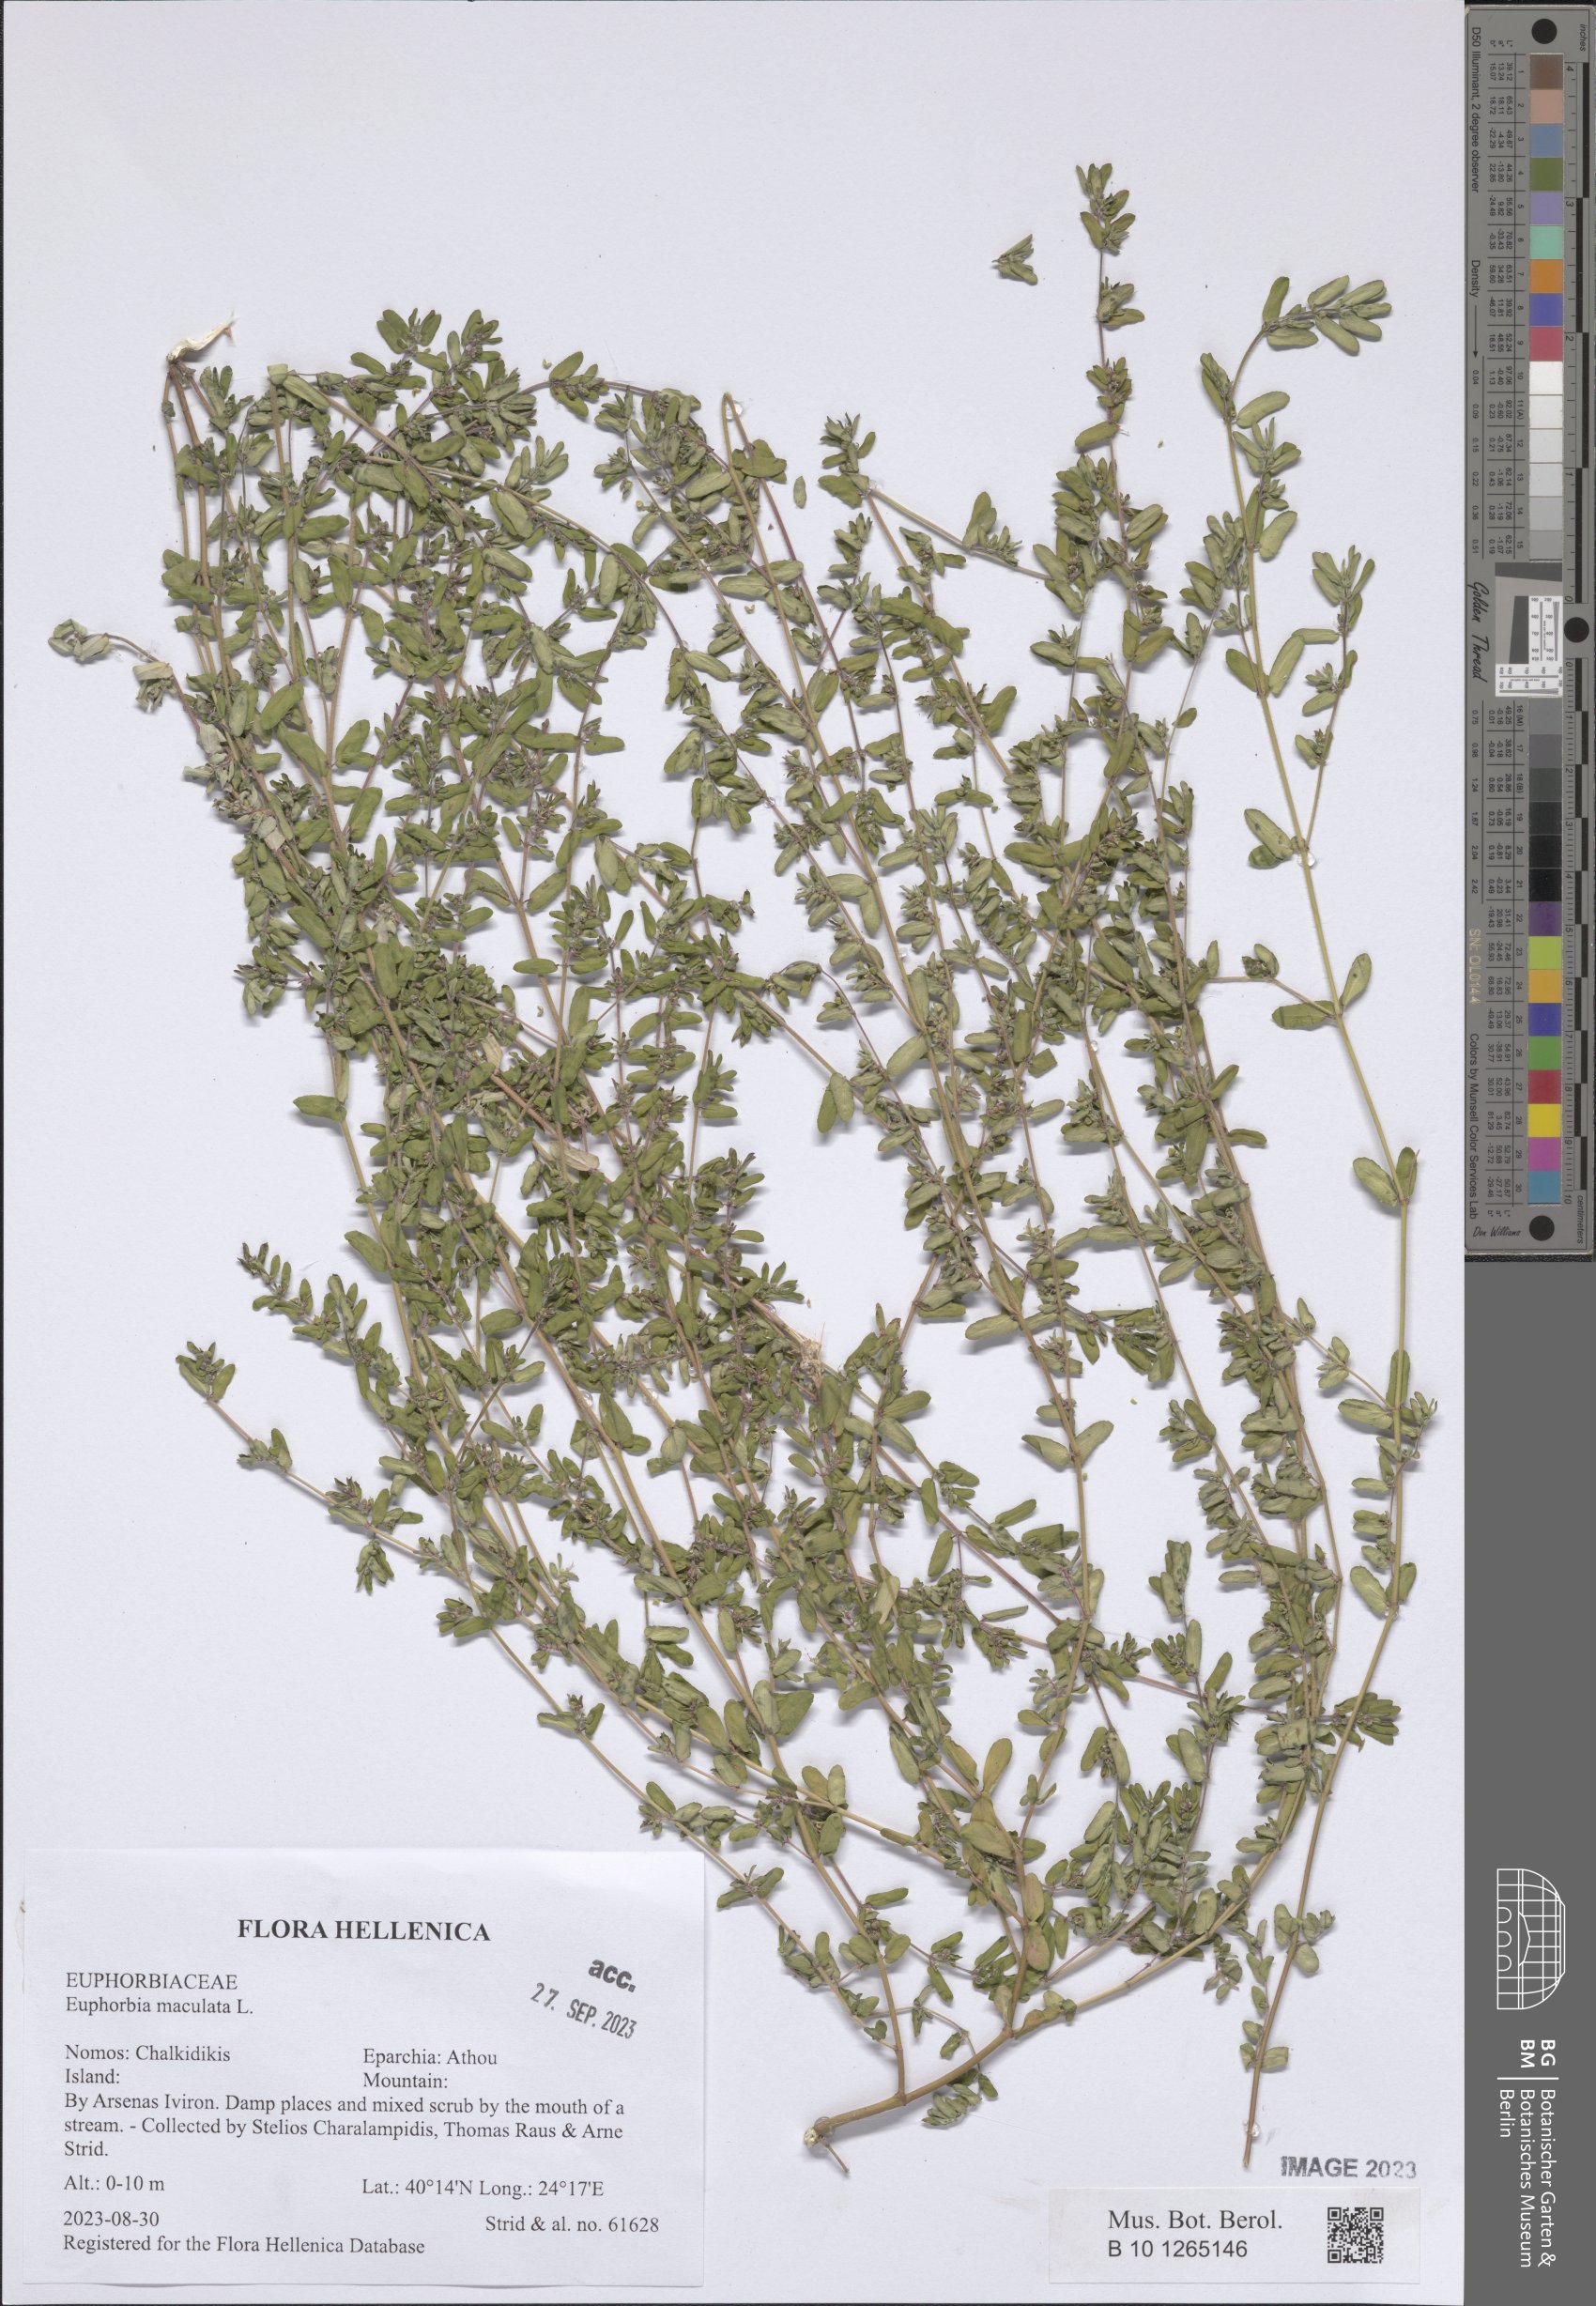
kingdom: Plantae
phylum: Tracheophyta
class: Magnoliopsida
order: Malpighiales
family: Euphorbiaceae
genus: Euphorbia
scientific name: Euphorbia maculata
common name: Spotted spurge
